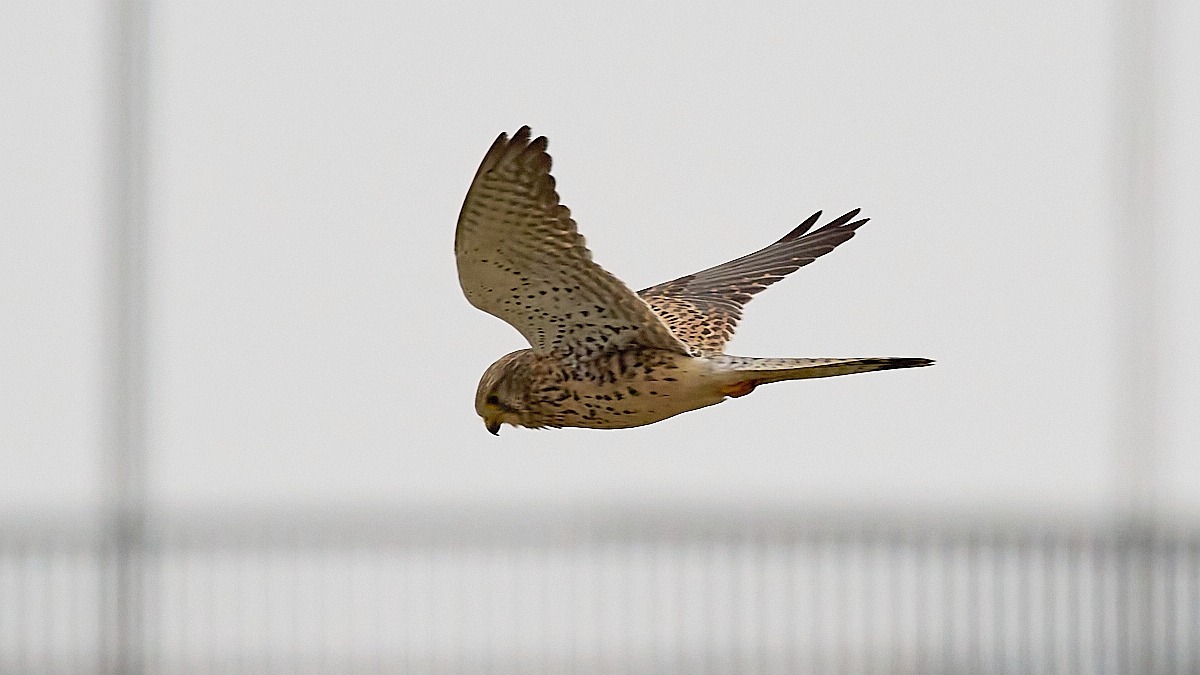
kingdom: Animalia
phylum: Chordata
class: Aves
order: Falconiformes
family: Falconidae
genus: Falco
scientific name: Falco tinnunculus
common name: Tårnfalk
